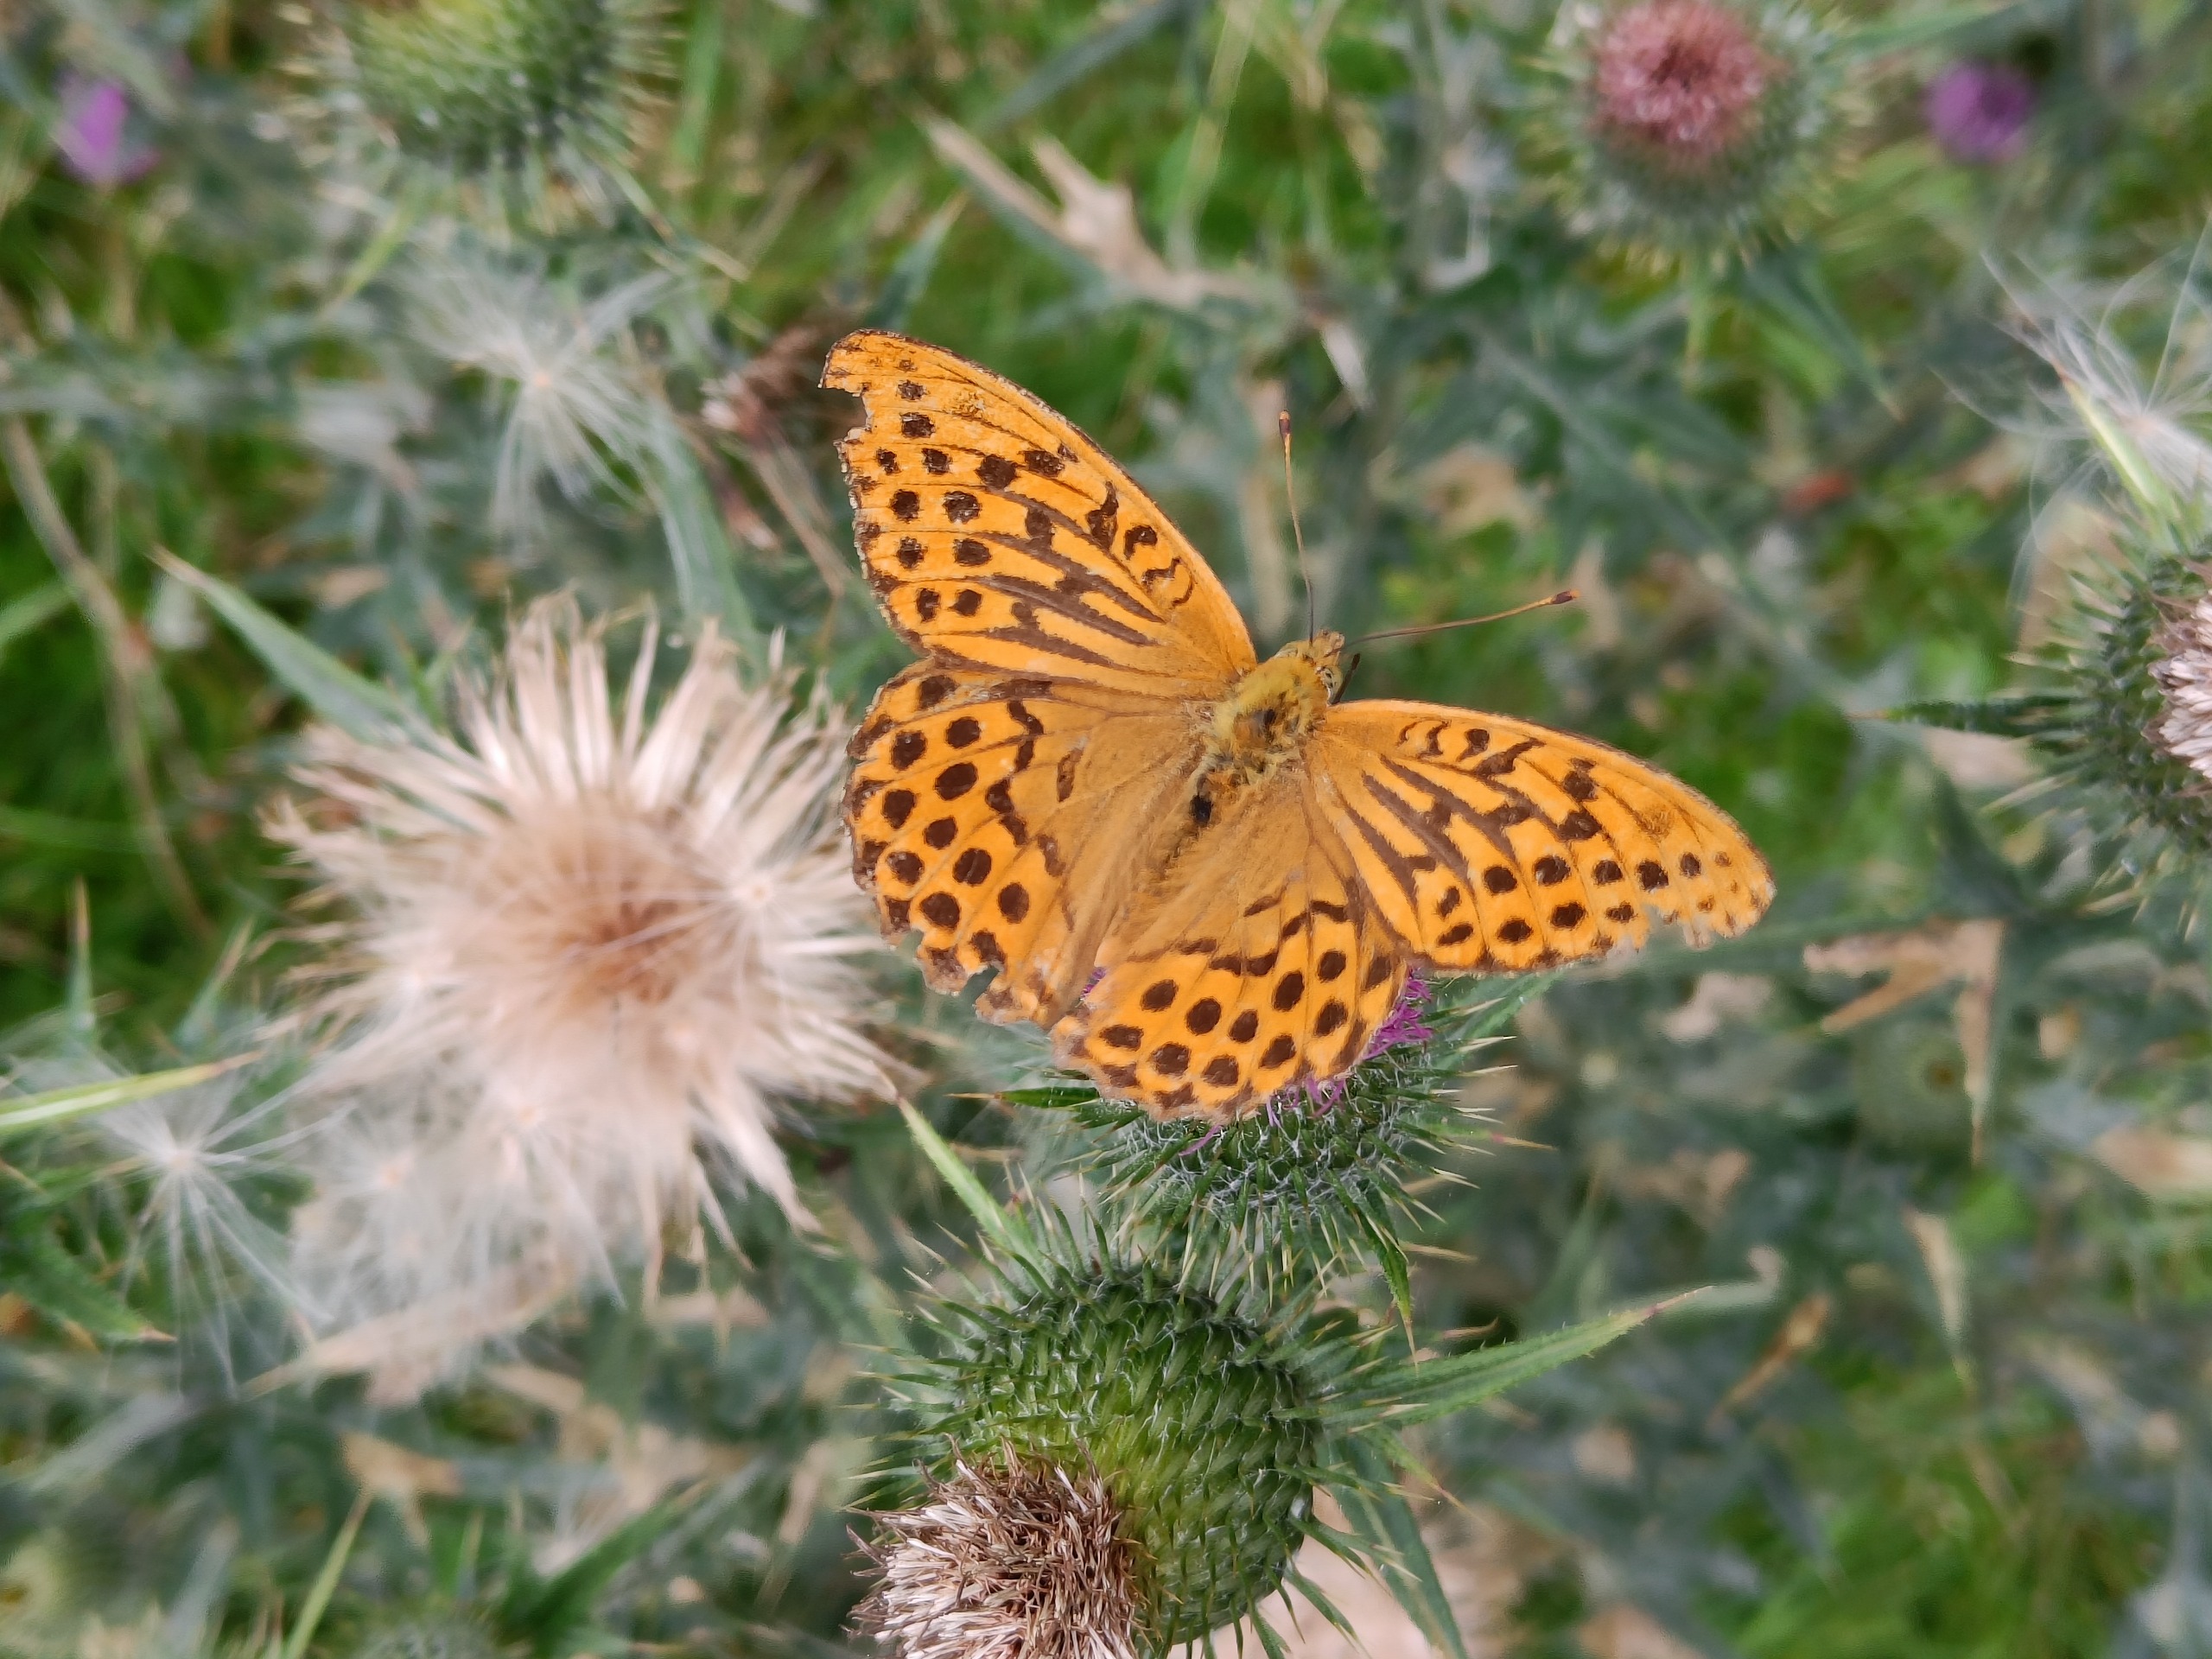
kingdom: Animalia
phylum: Arthropoda
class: Insecta
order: Lepidoptera
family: Nymphalidae
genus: Argynnis
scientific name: Argynnis paphia
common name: Kejserkåbe
